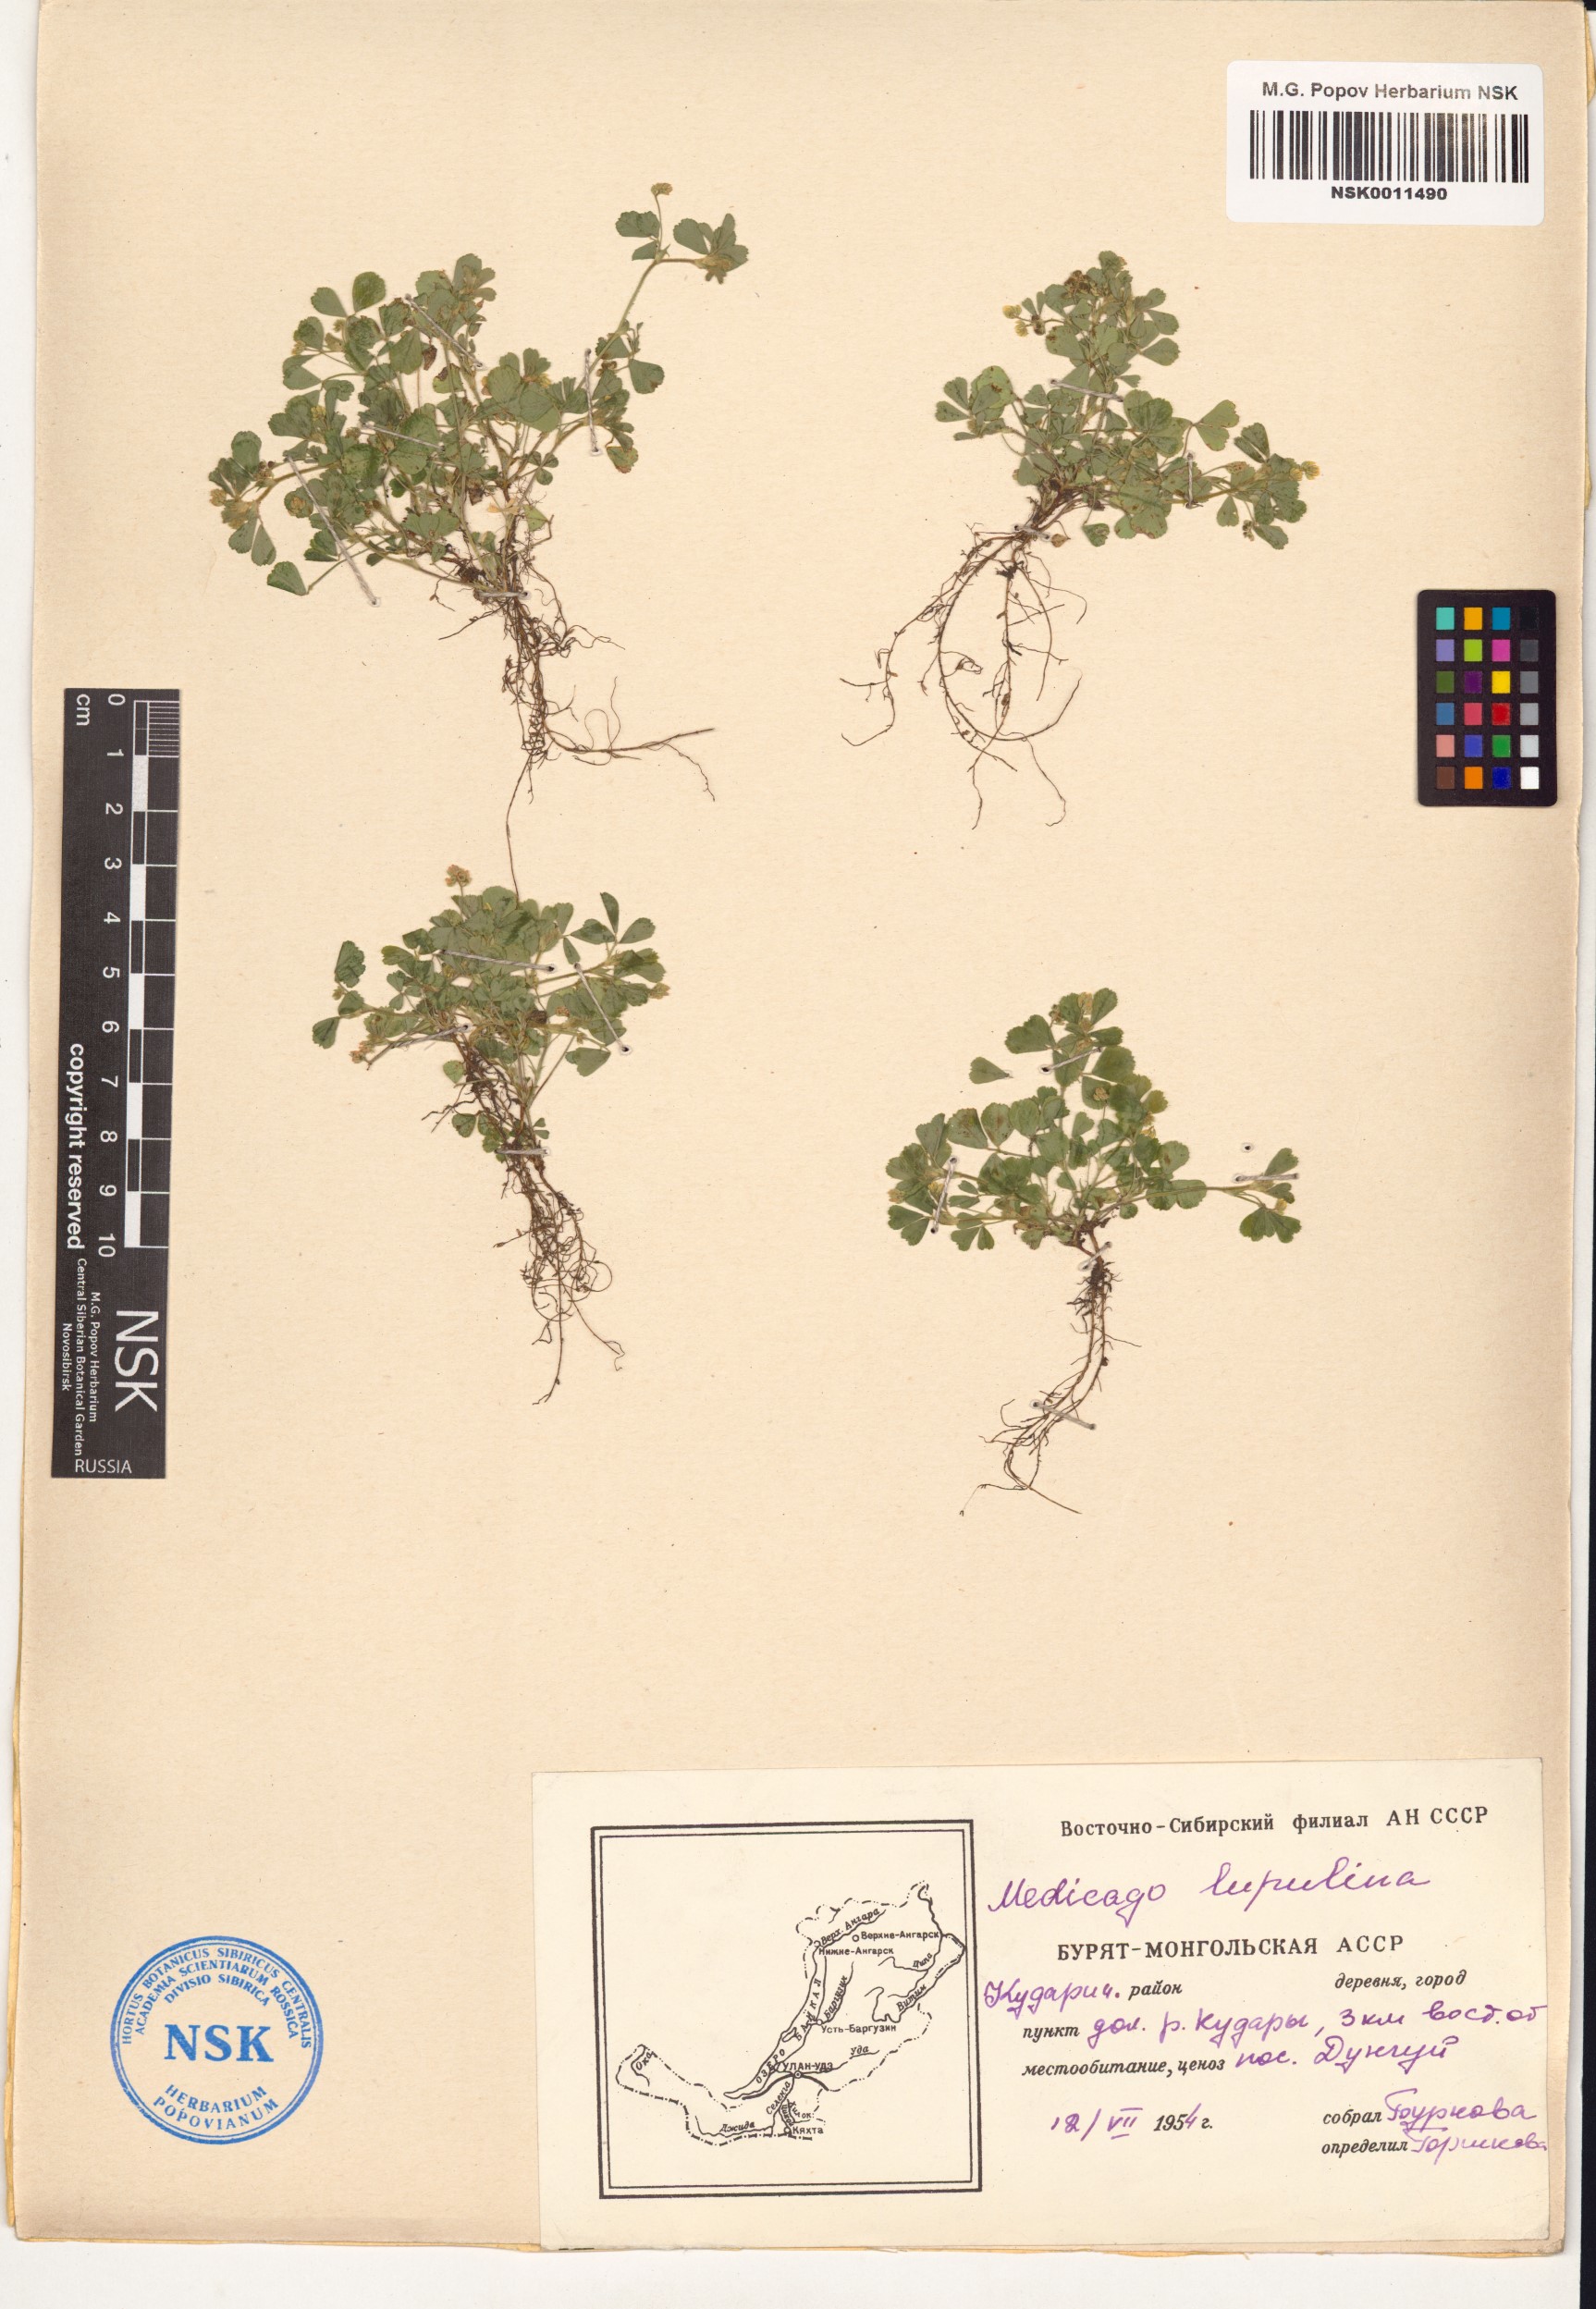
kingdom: Plantae
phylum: Tracheophyta
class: Magnoliopsida
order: Fabales
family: Fabaceae
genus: Medicago
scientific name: Medicago lupulina
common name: Black medick
